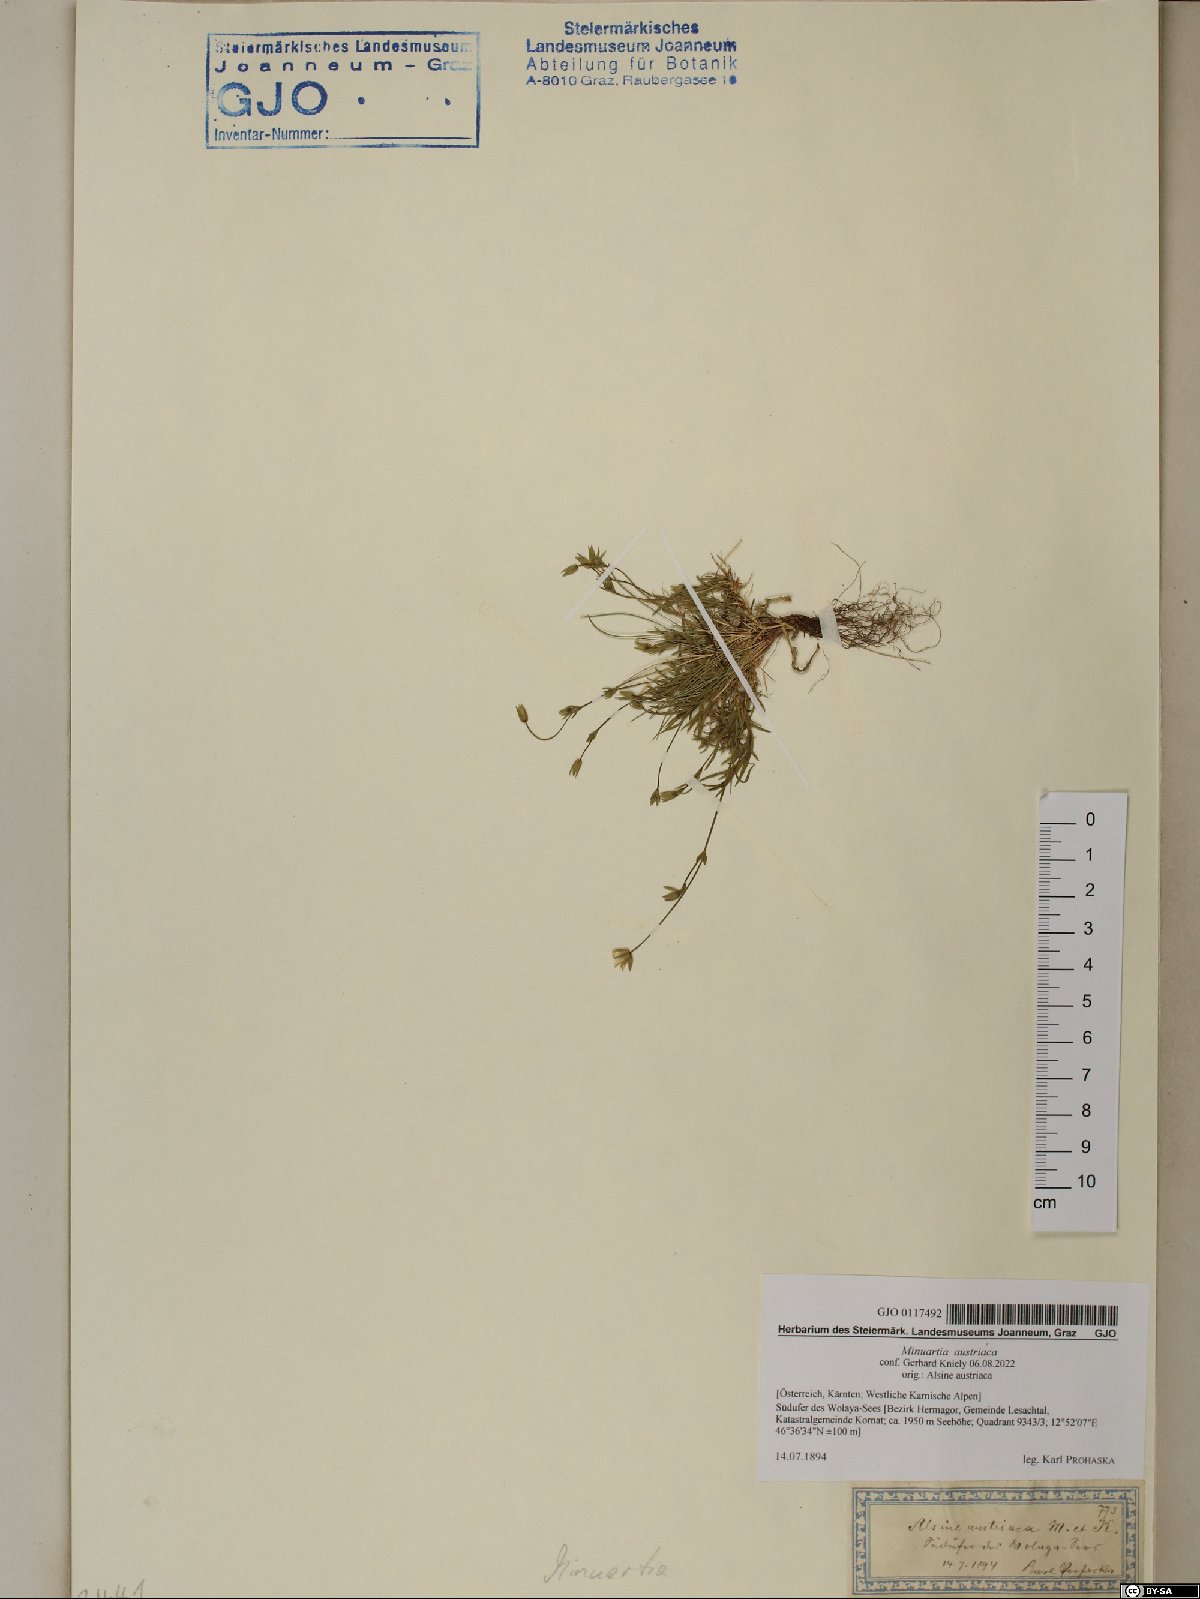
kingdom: Plantae
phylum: Tracheophyta
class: Magnoliopsida
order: Caryophyllales
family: Caryophyllaceae
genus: Sabulina
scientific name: Sabulina austriaca
